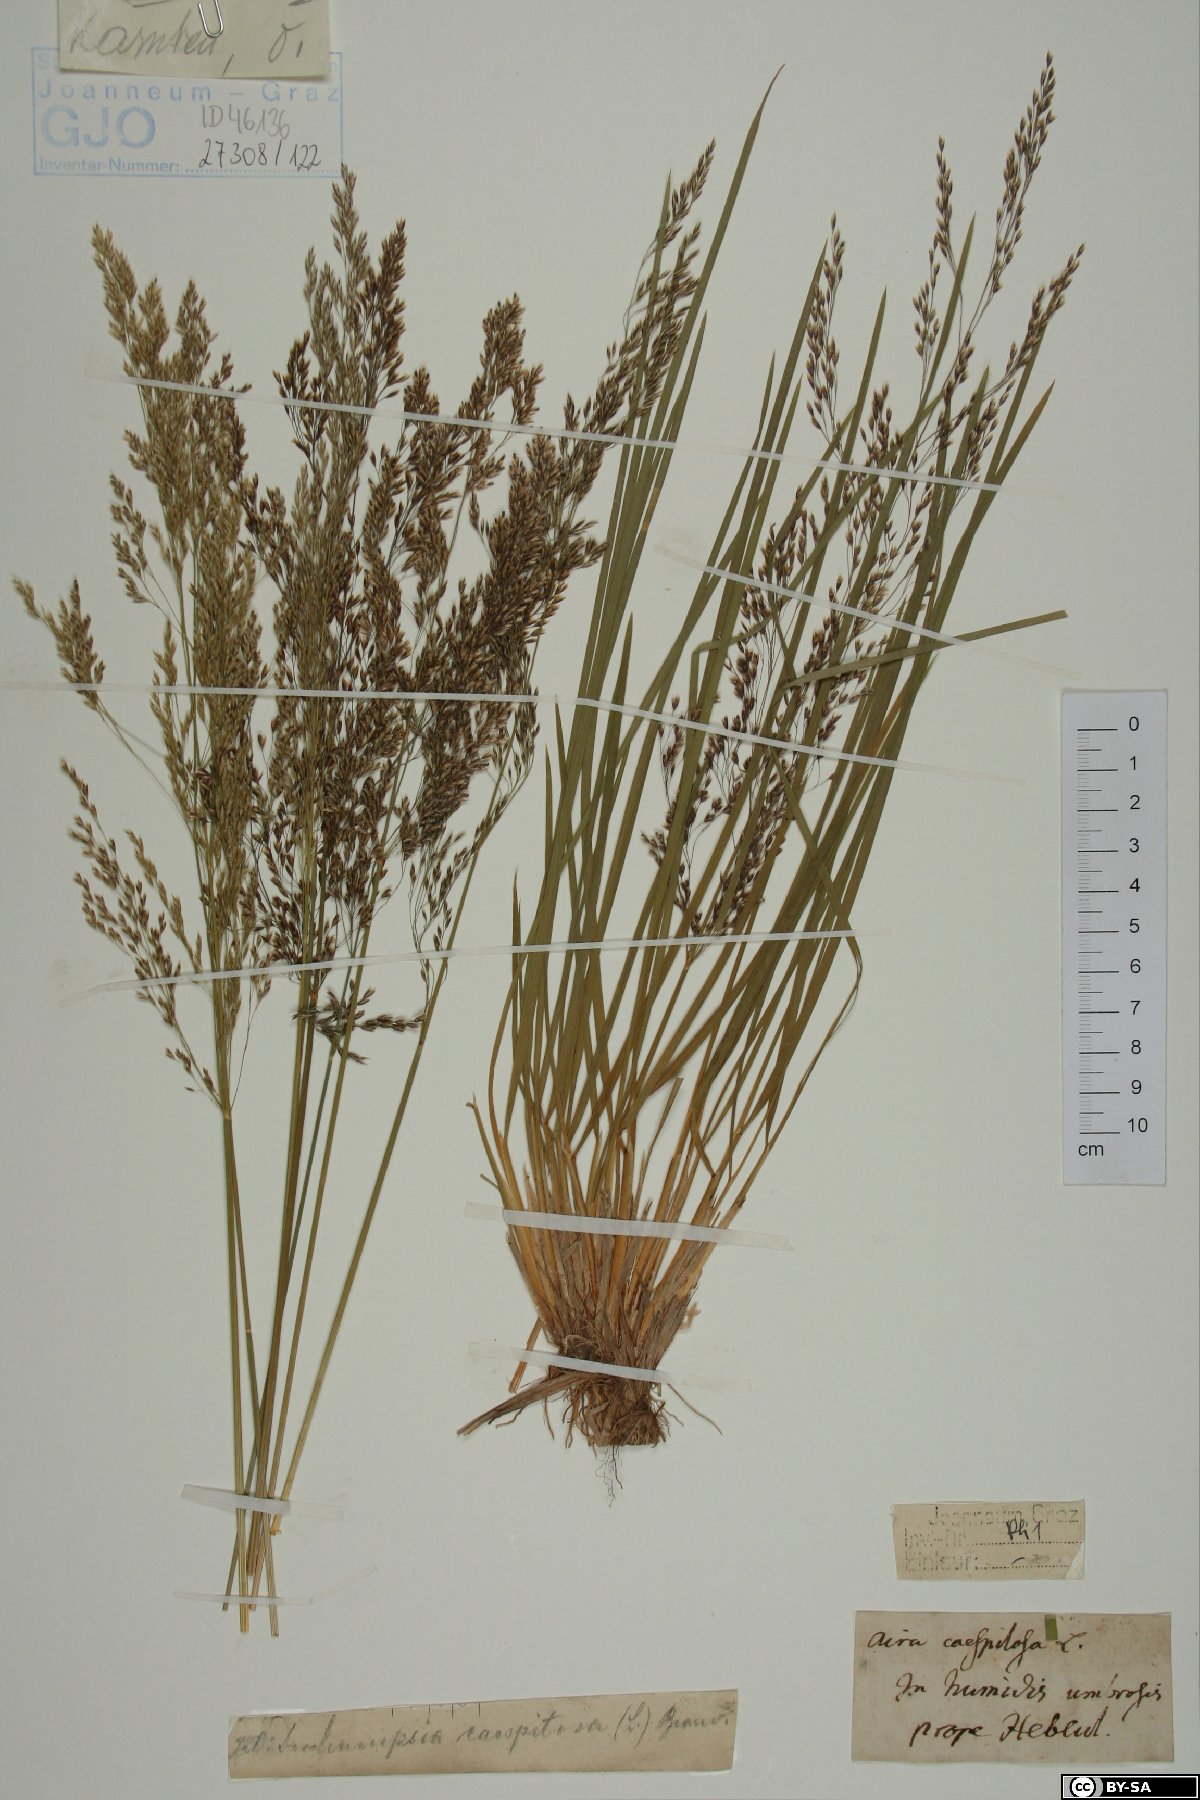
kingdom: Plantae
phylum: Tracheophyta
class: Liliopsida
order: Poales
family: Poaceae
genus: Deschampsia
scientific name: Deschampsia cespitosa
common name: Tufted hair-grass
